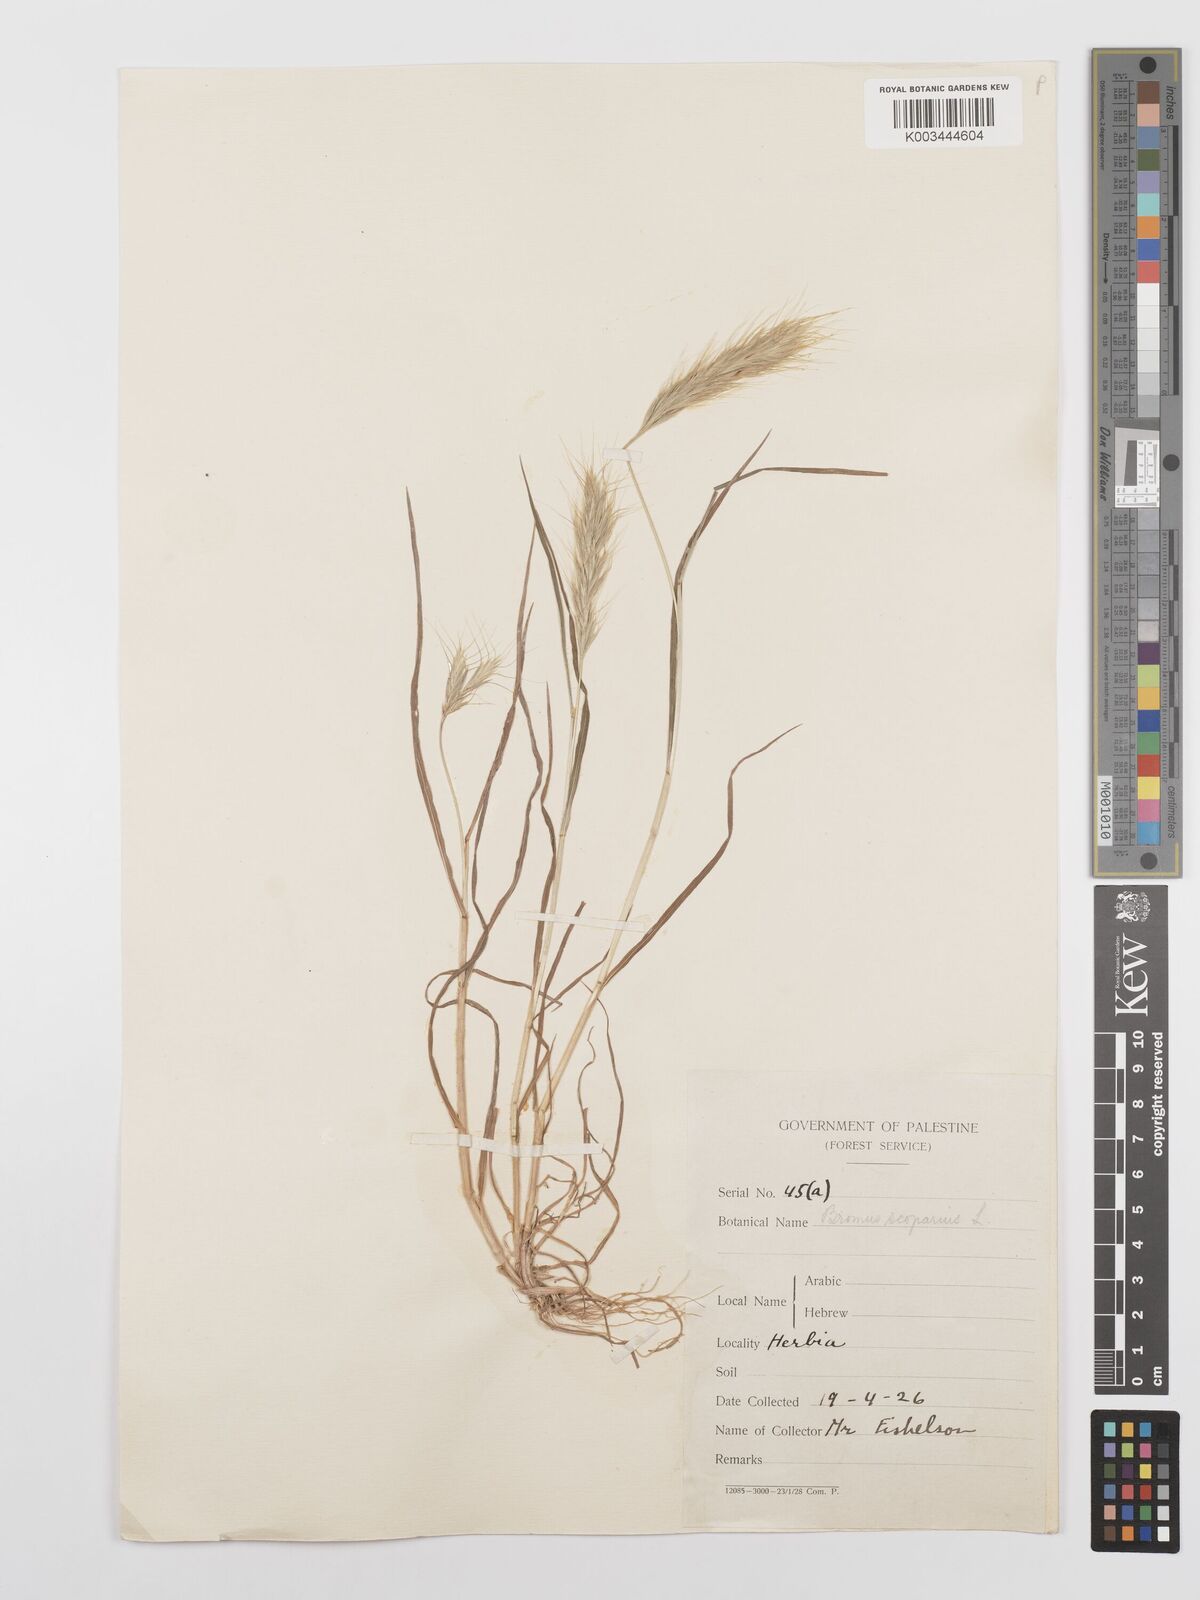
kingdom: Plantae
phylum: Tracheophyta
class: Liliopsida
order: Poales
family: Poaceae
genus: Bromus
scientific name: Bromus scoparius
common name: Broom brome
